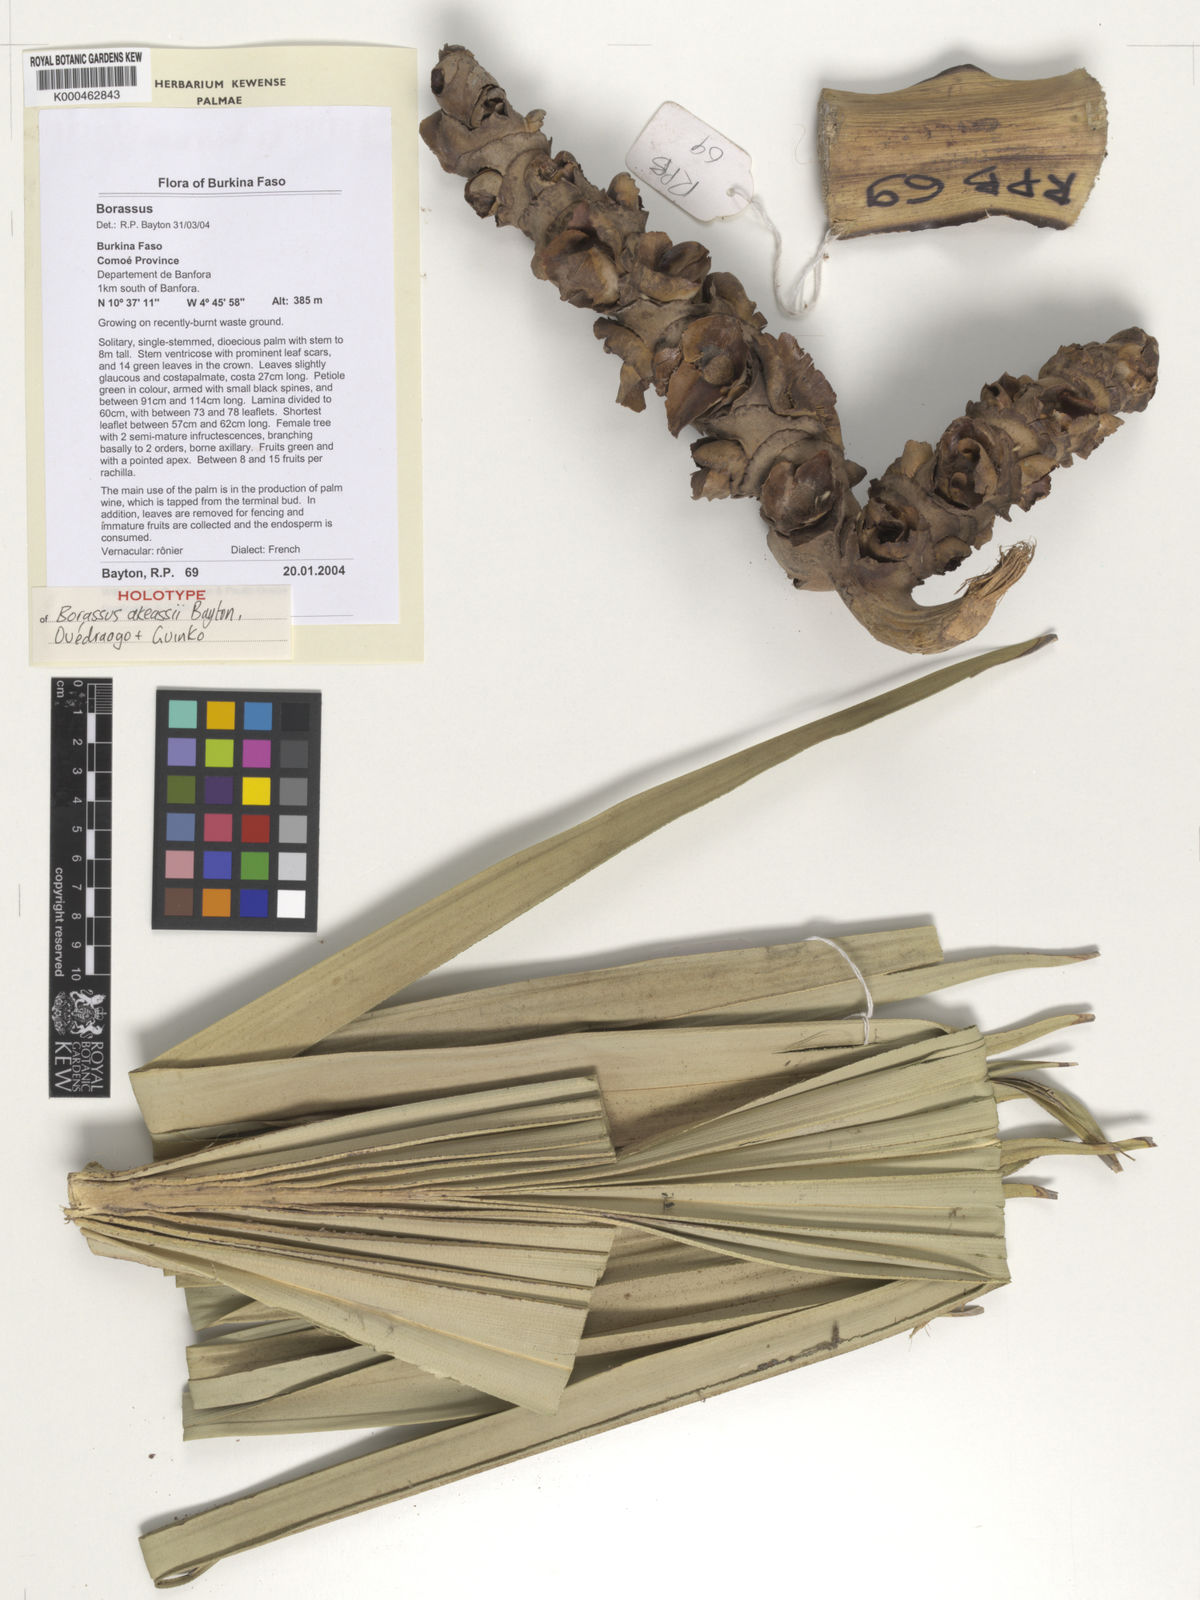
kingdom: Plantae
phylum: Tracheophyta
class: Liliopsida
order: Arecales
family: Arecaceae
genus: Borassus
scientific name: Borassus
